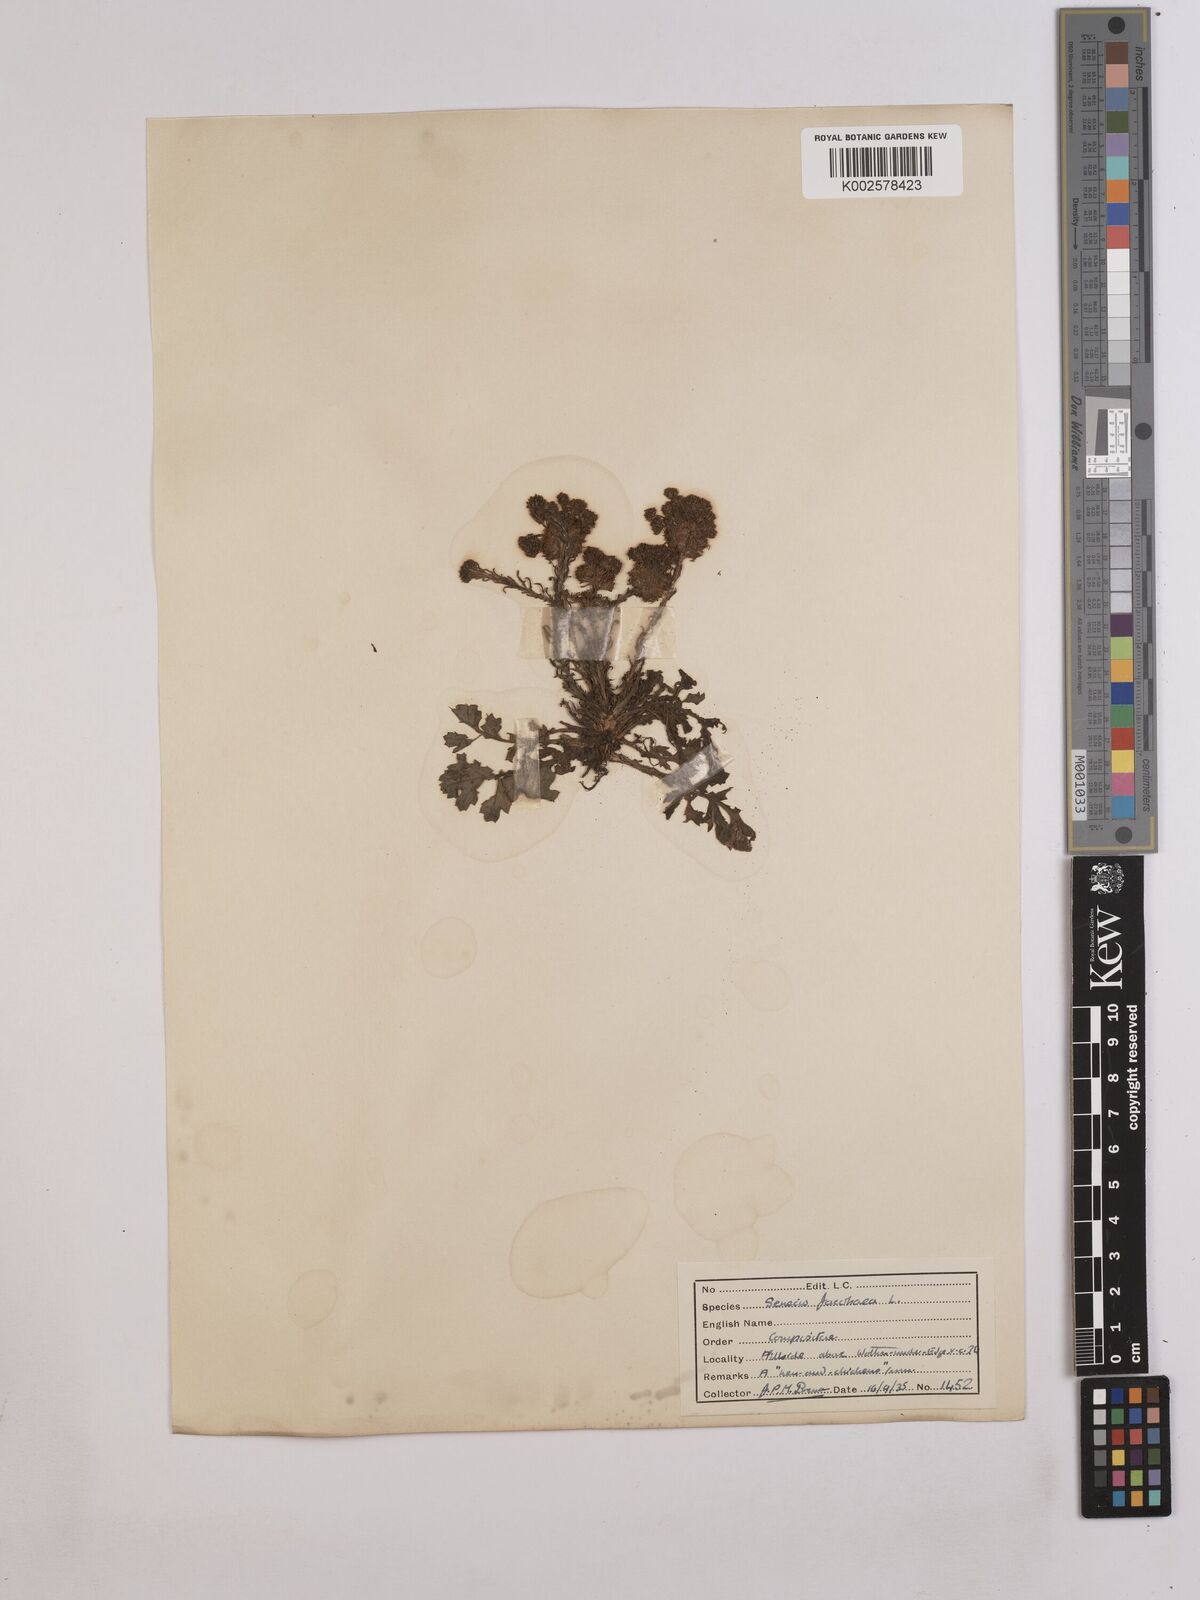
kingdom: Plantae
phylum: Tracheophyta
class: Magnoliopsida
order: Asterales
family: Asteraceae
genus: Jacobaea
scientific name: Jacobaea vulgaris
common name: Stinking willie
